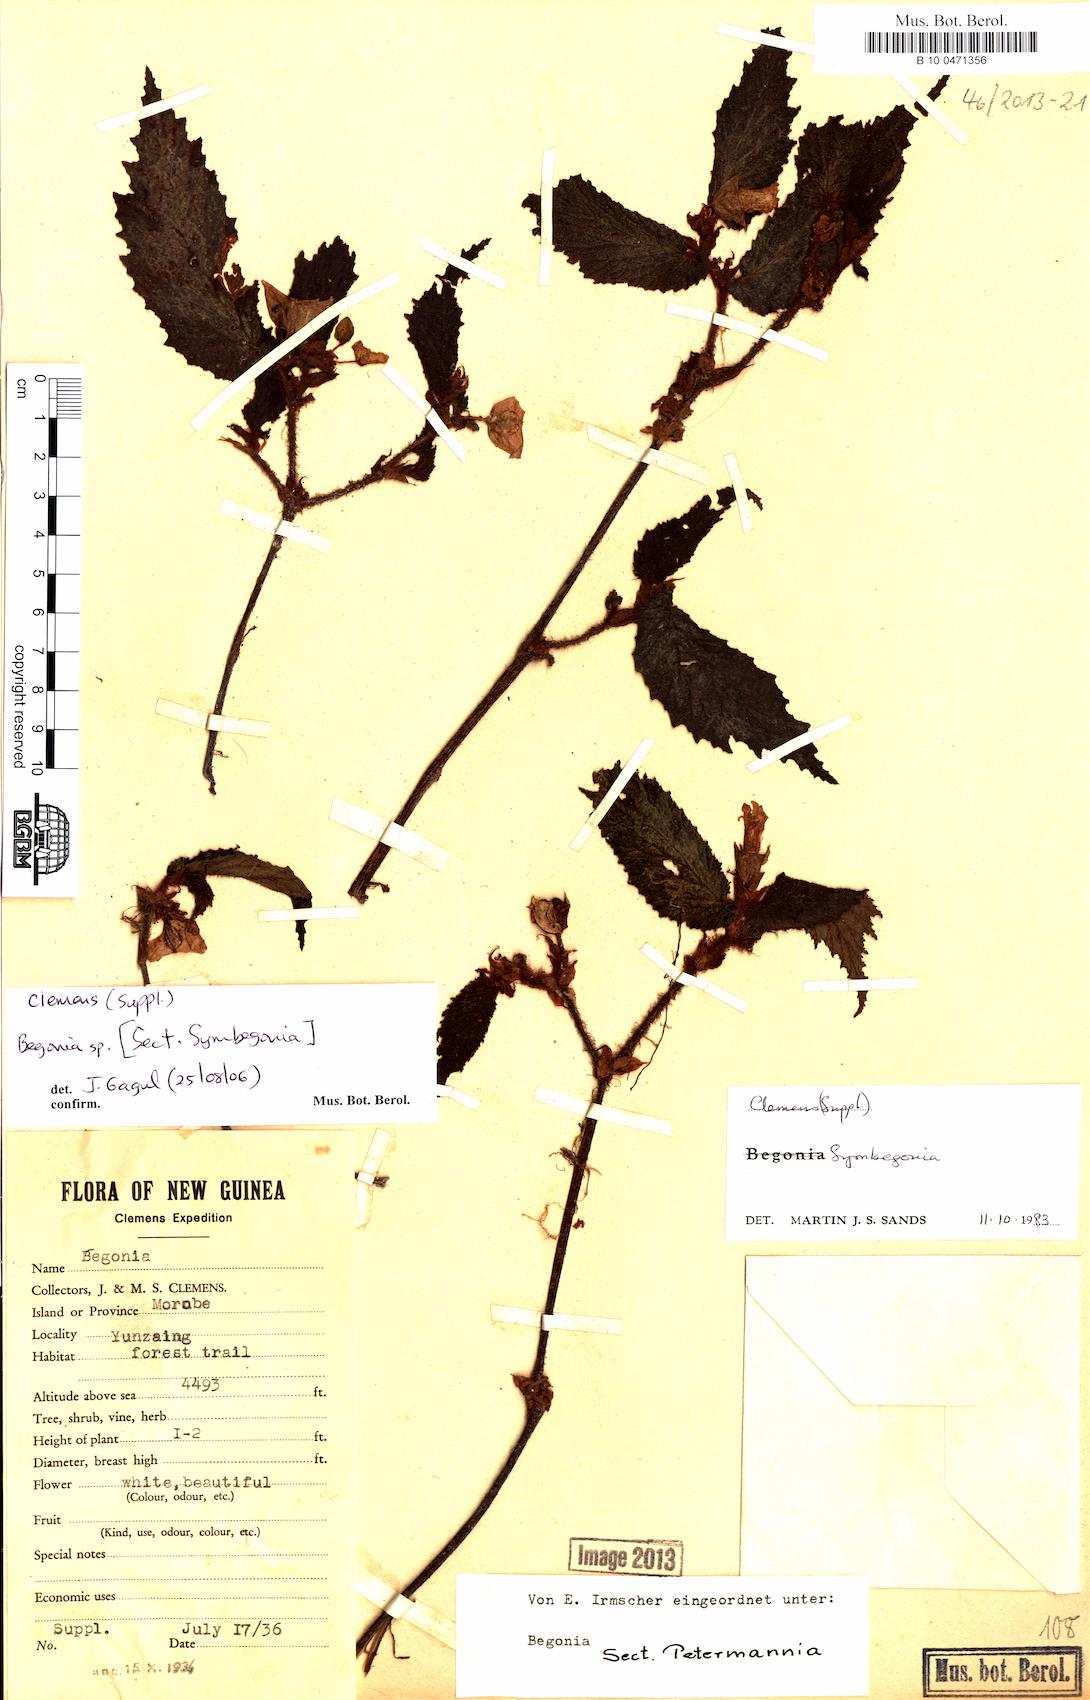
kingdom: Plantae
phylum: Tracheophyta
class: Magnoliopsida
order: Cucurbitales
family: Begoniaceae
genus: Begonia
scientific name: Begonia
